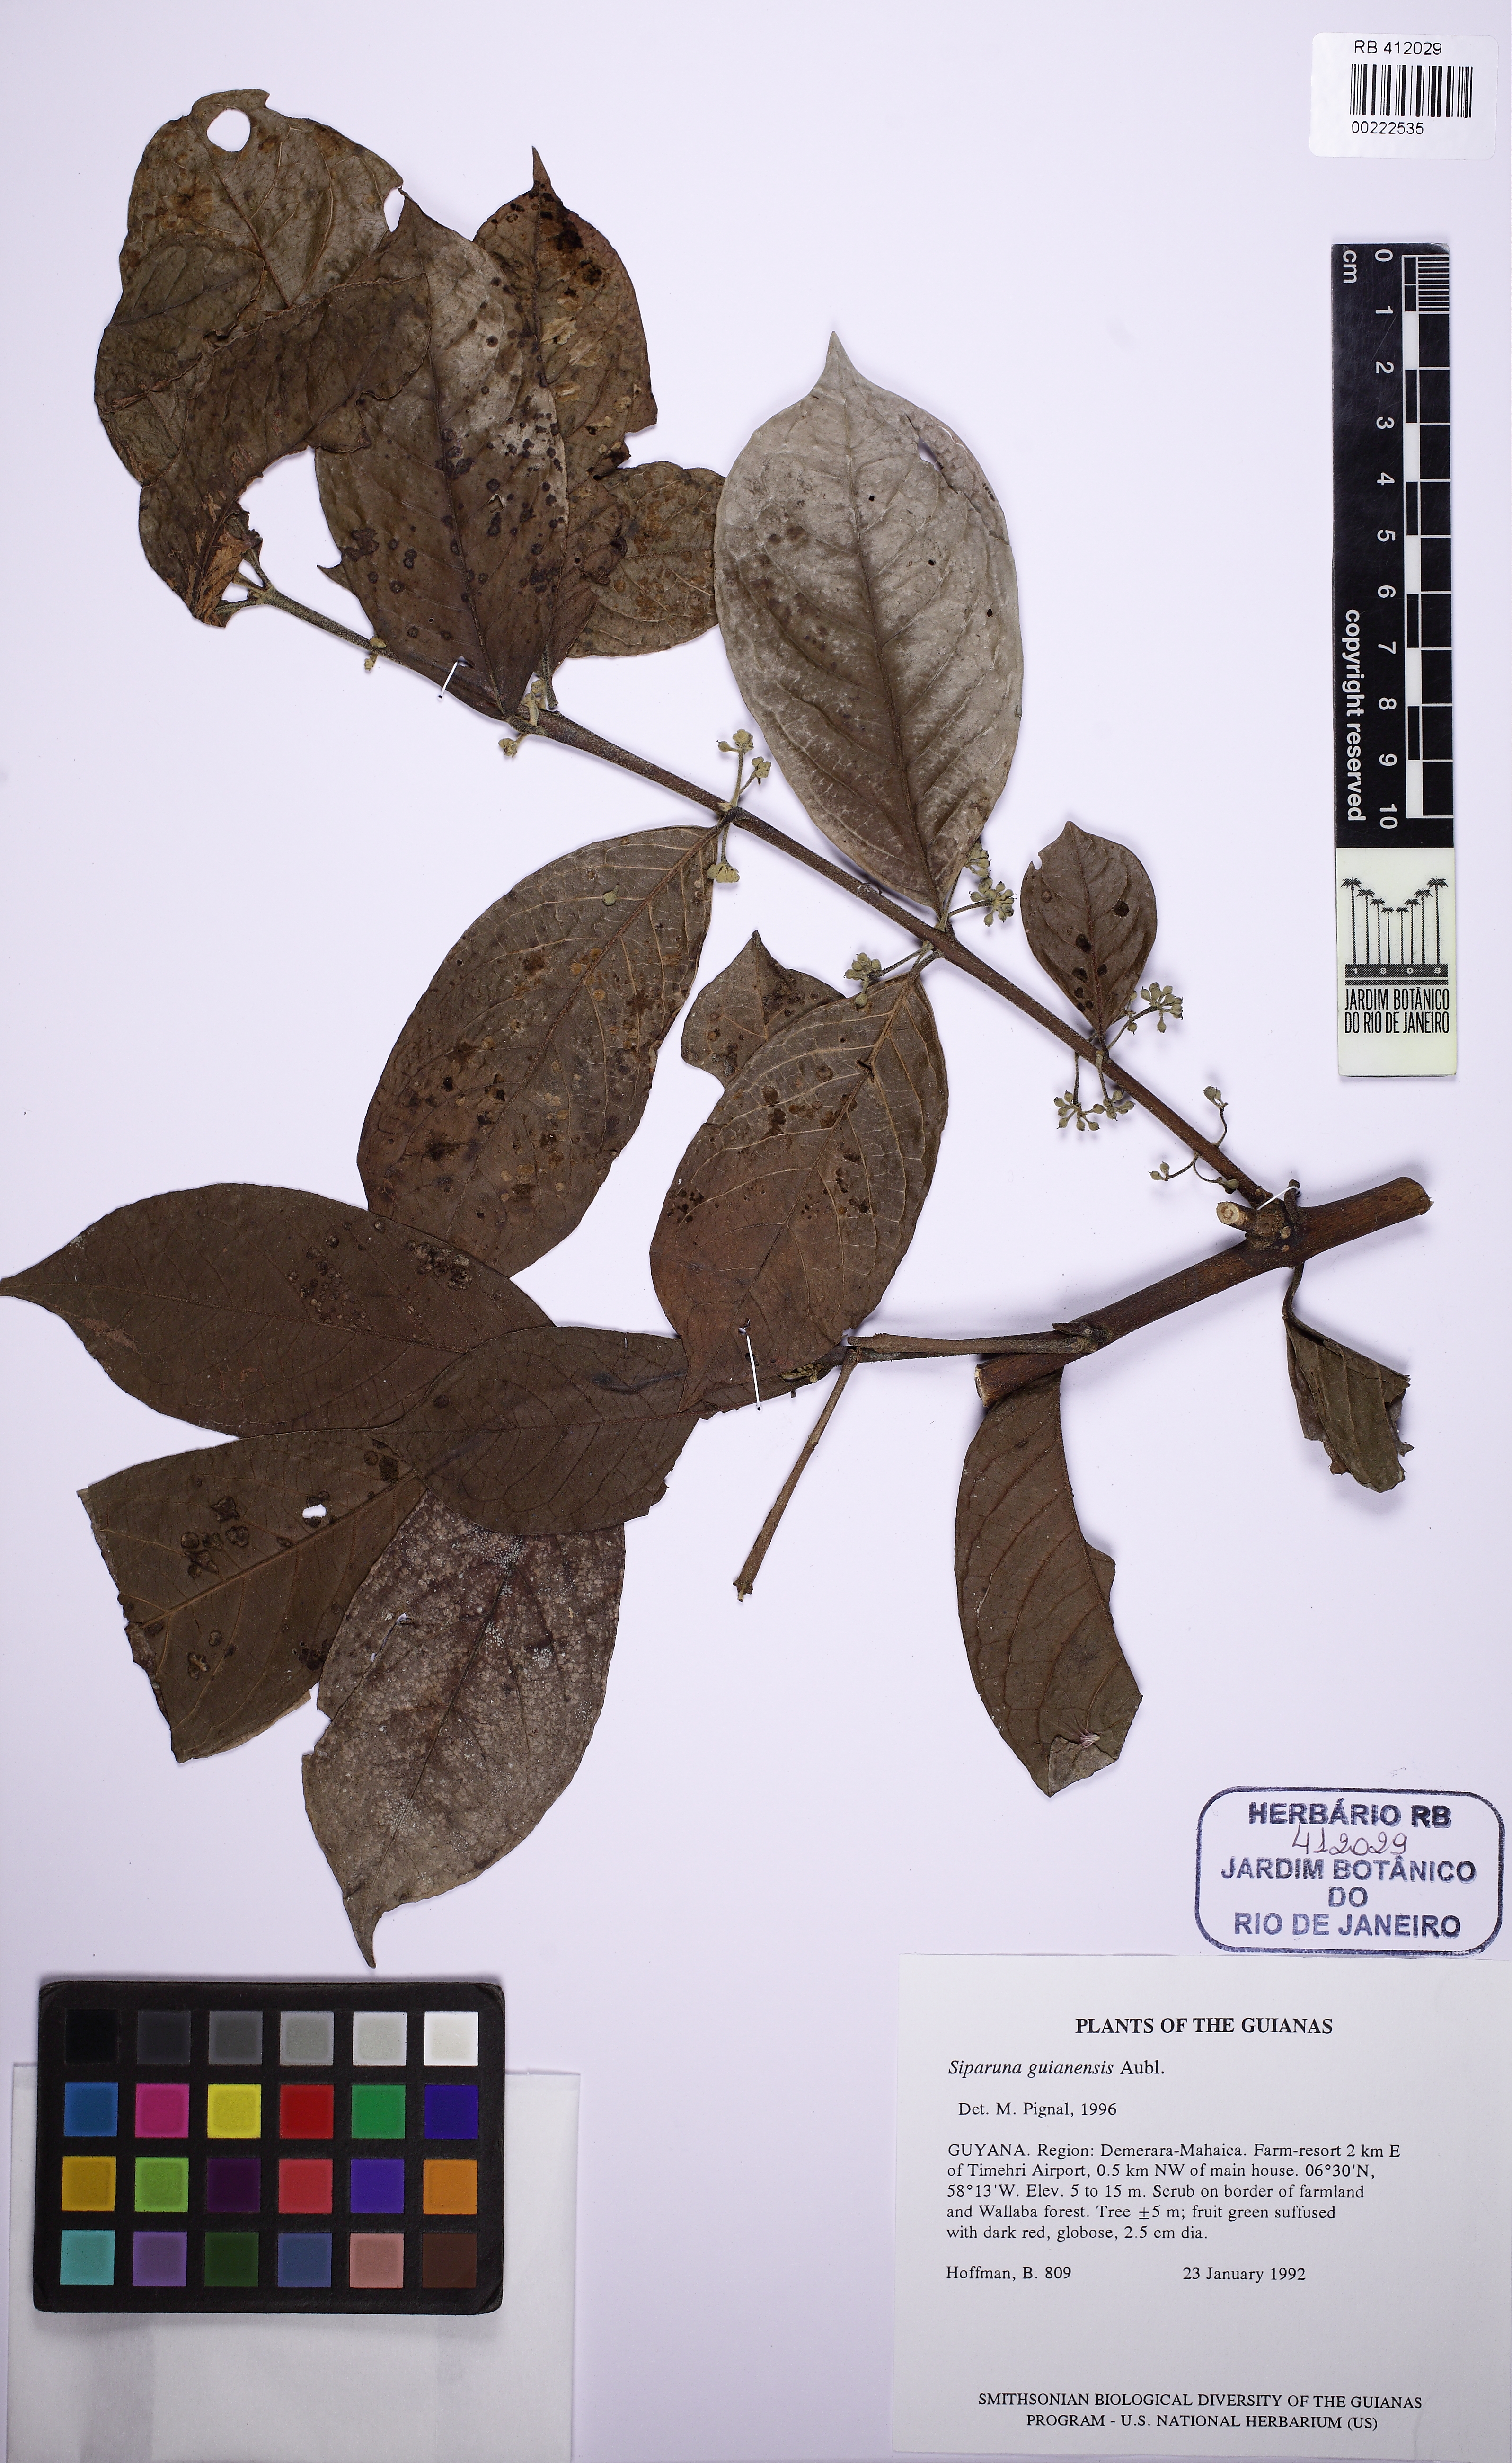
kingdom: Plantae
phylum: Tracheophyta
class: Magnoliopsida
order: Laurales
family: Siparunaceae
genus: Siparuna
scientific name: Siparuna guianensis
